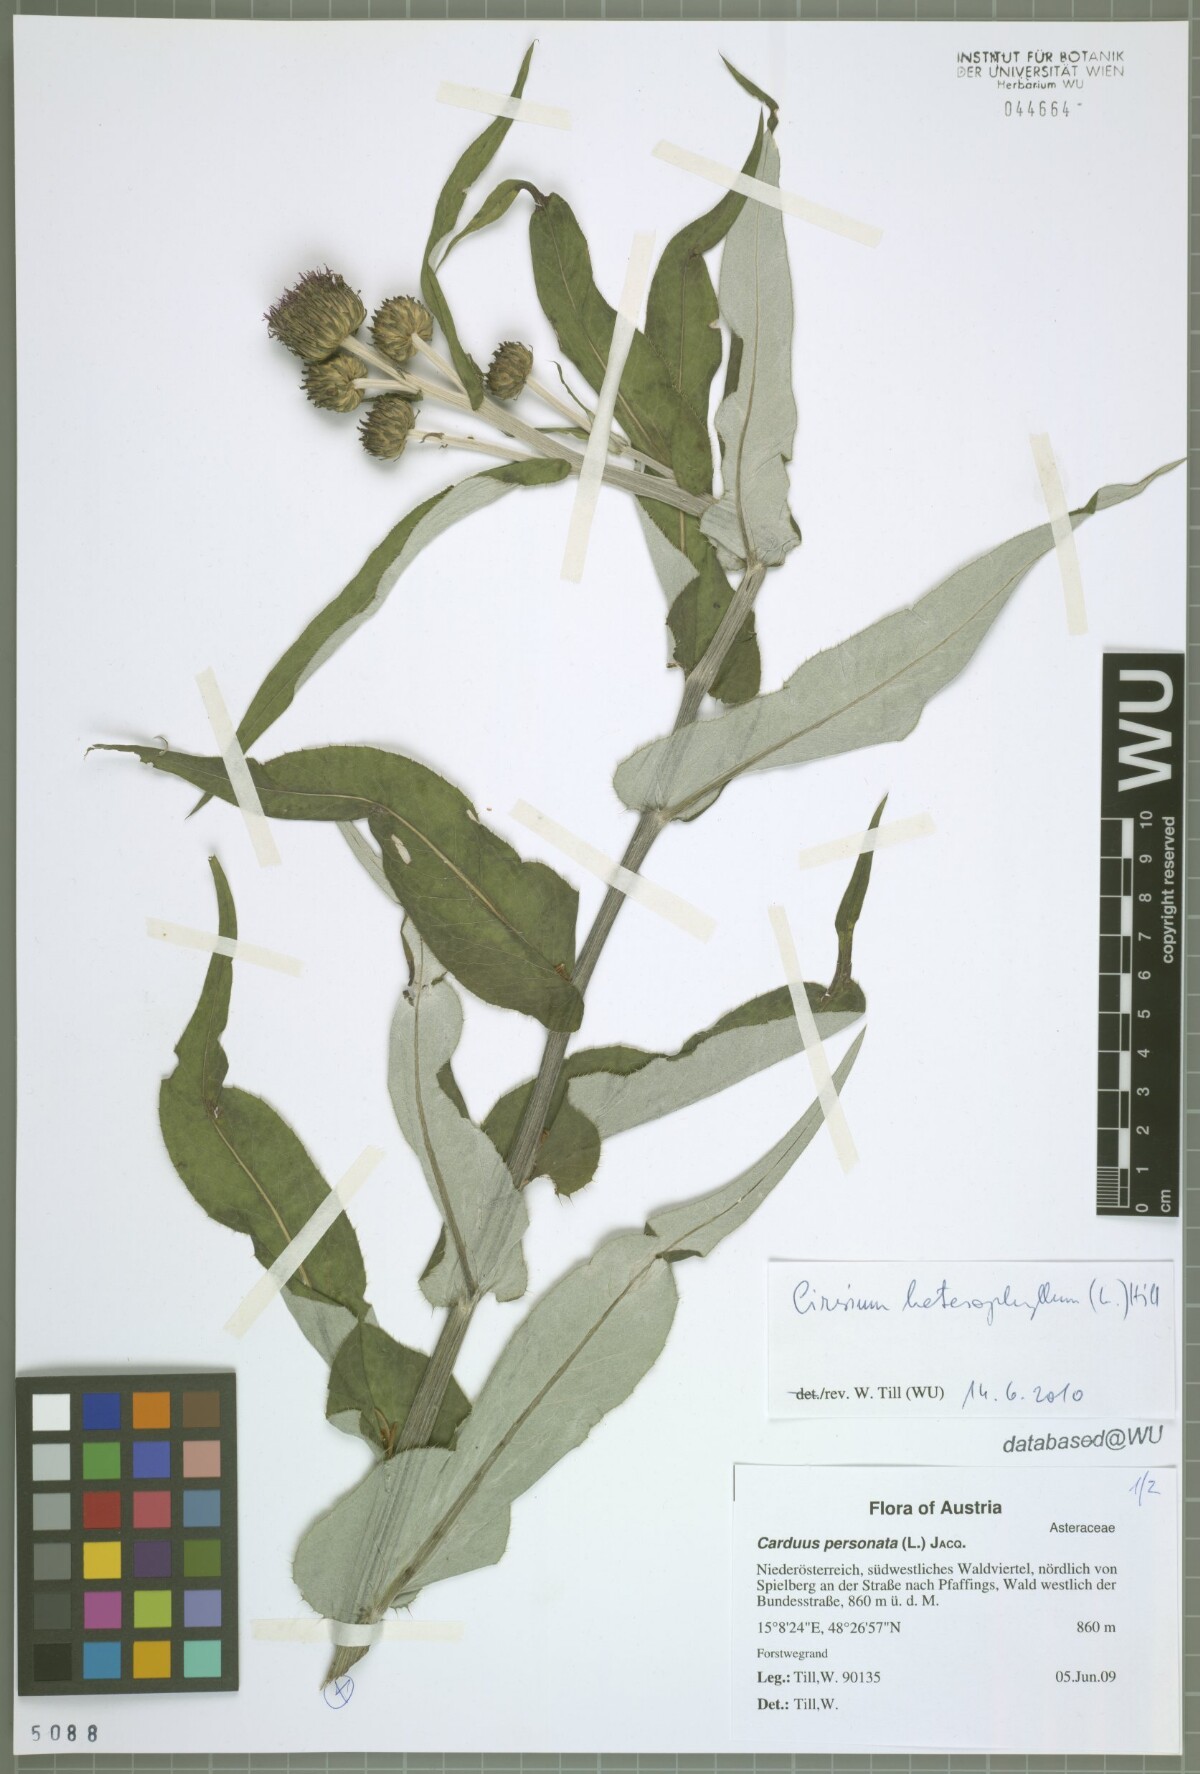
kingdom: Plantae
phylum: Tracheophyta
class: Magnoliopsida
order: Asterales
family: Asteraceae
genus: Cirsium
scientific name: Cirsium heterophyllum
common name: Melancholy thistle
